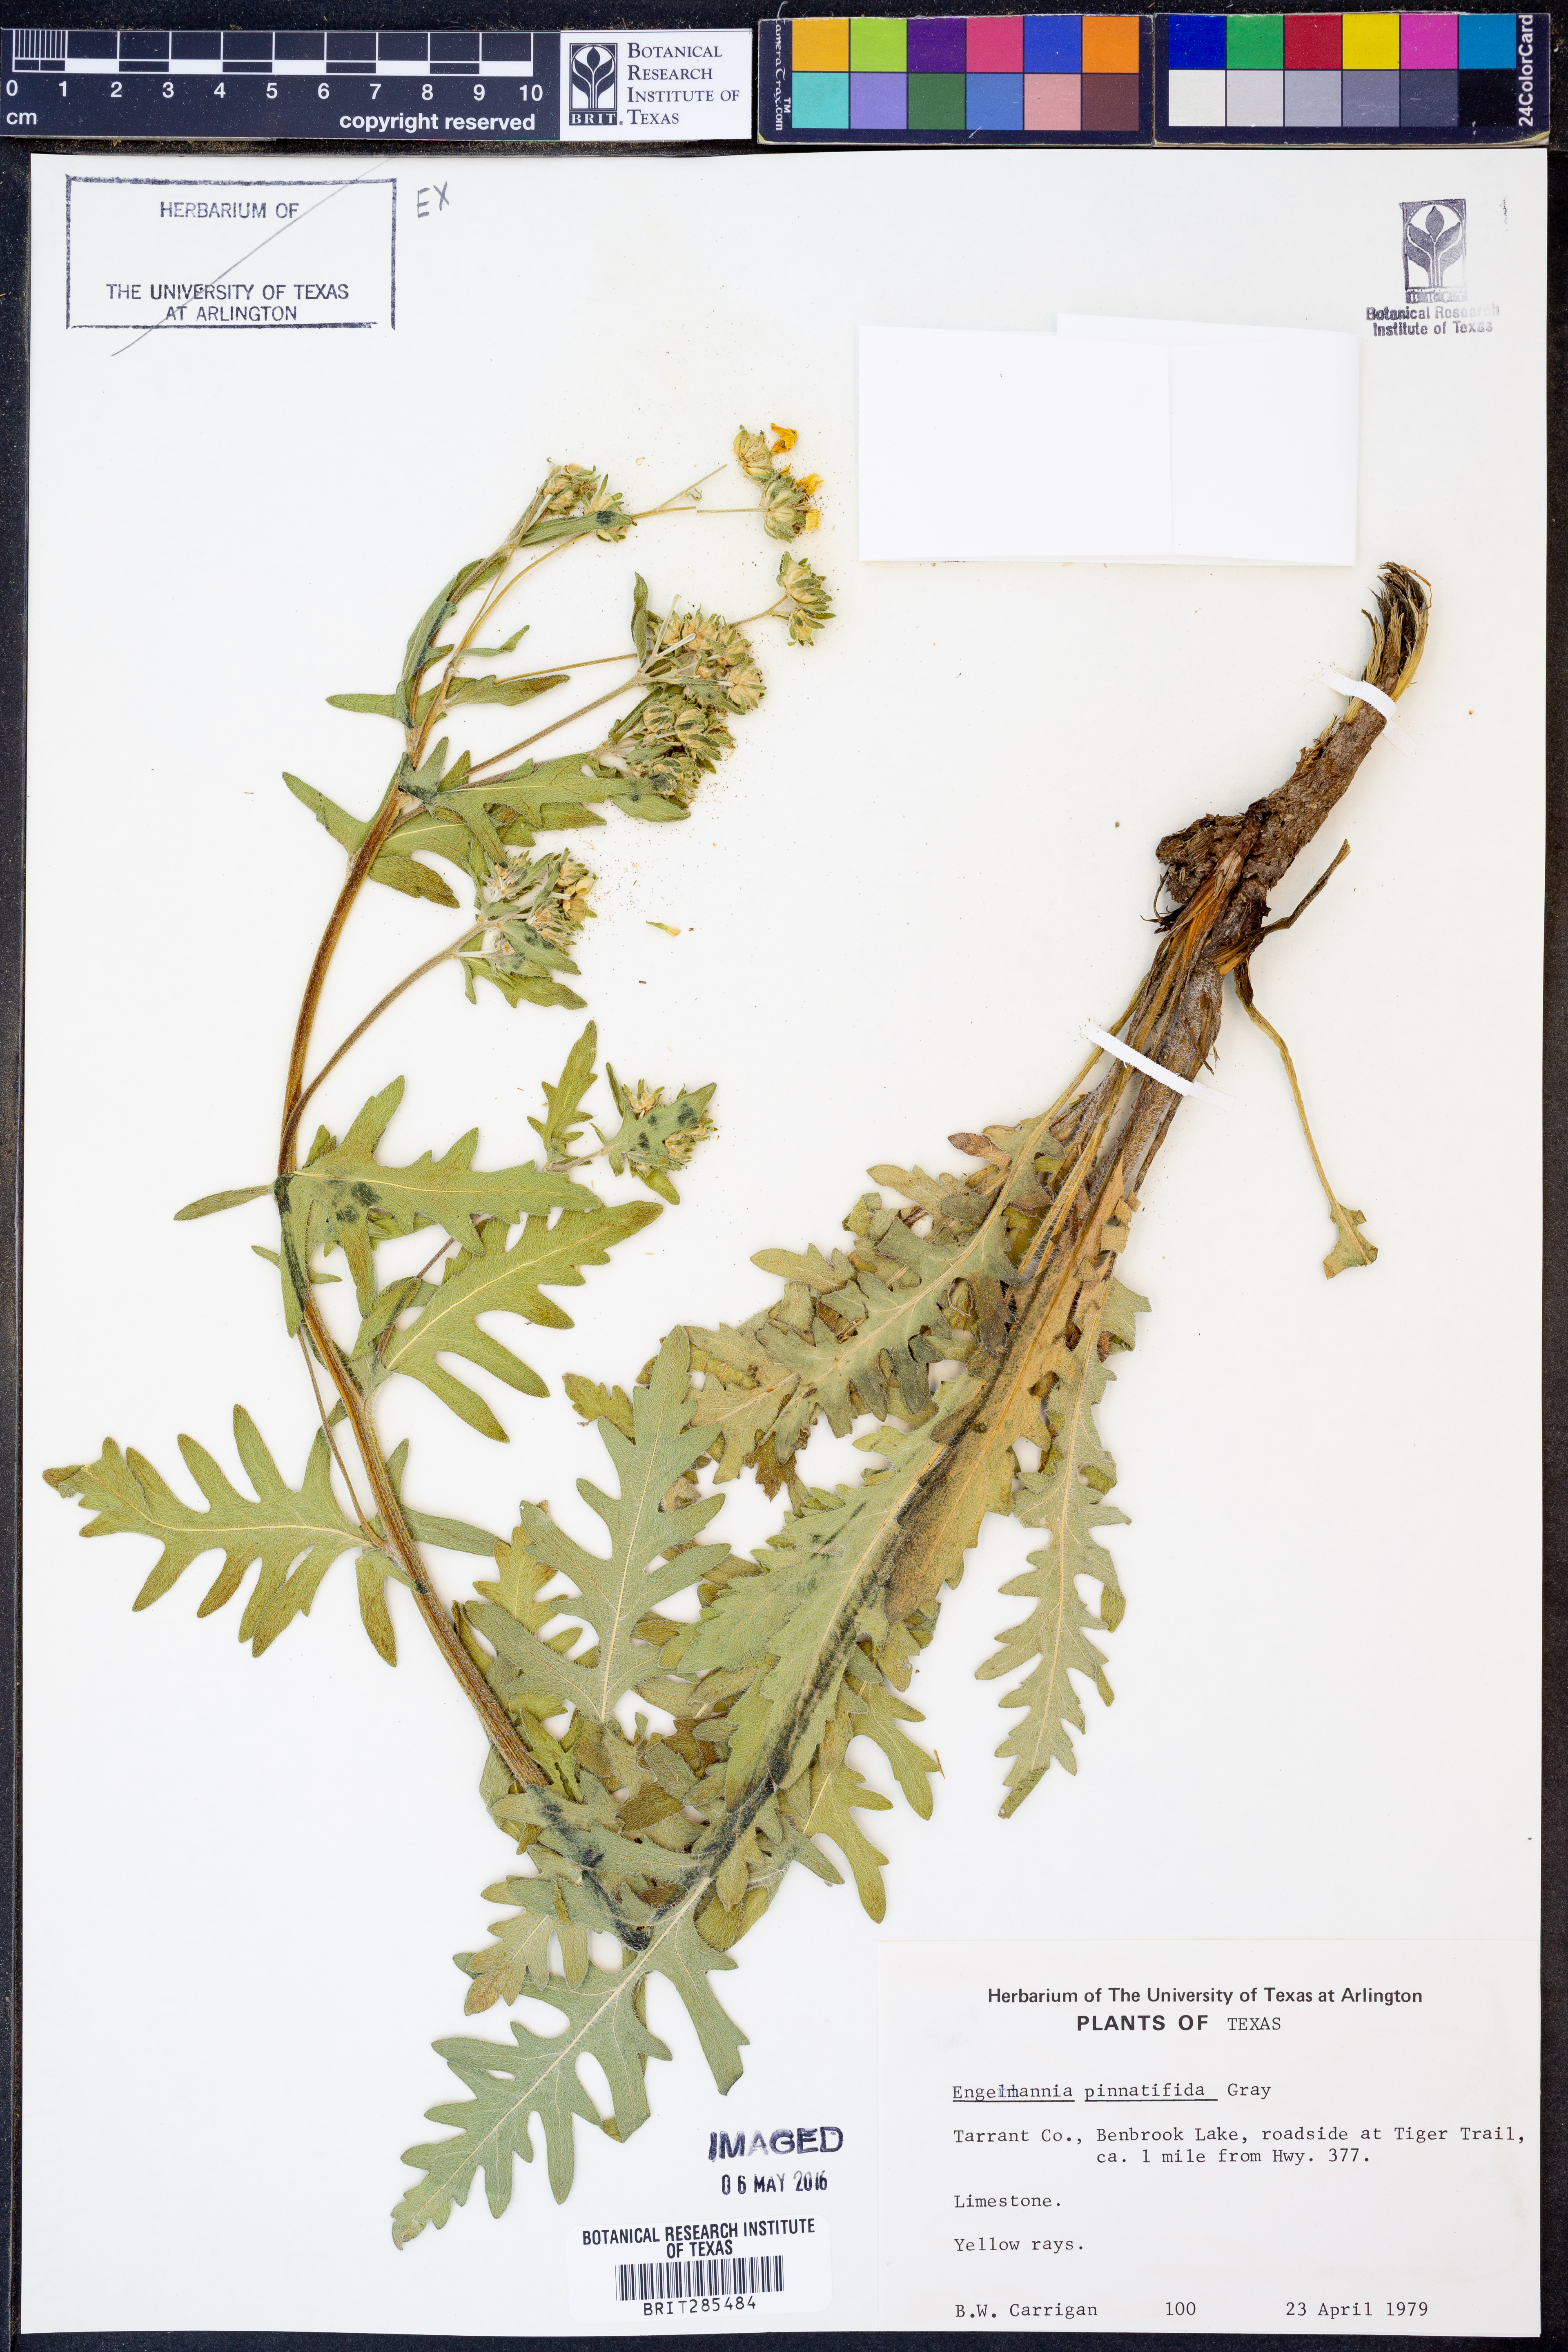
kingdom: Plantae
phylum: Tracheophyta
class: Magnoliopsida
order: Asterales
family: Asteraceae
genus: Engelmannia
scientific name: Engelmannia peristenia
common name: Engelmann's daisy
